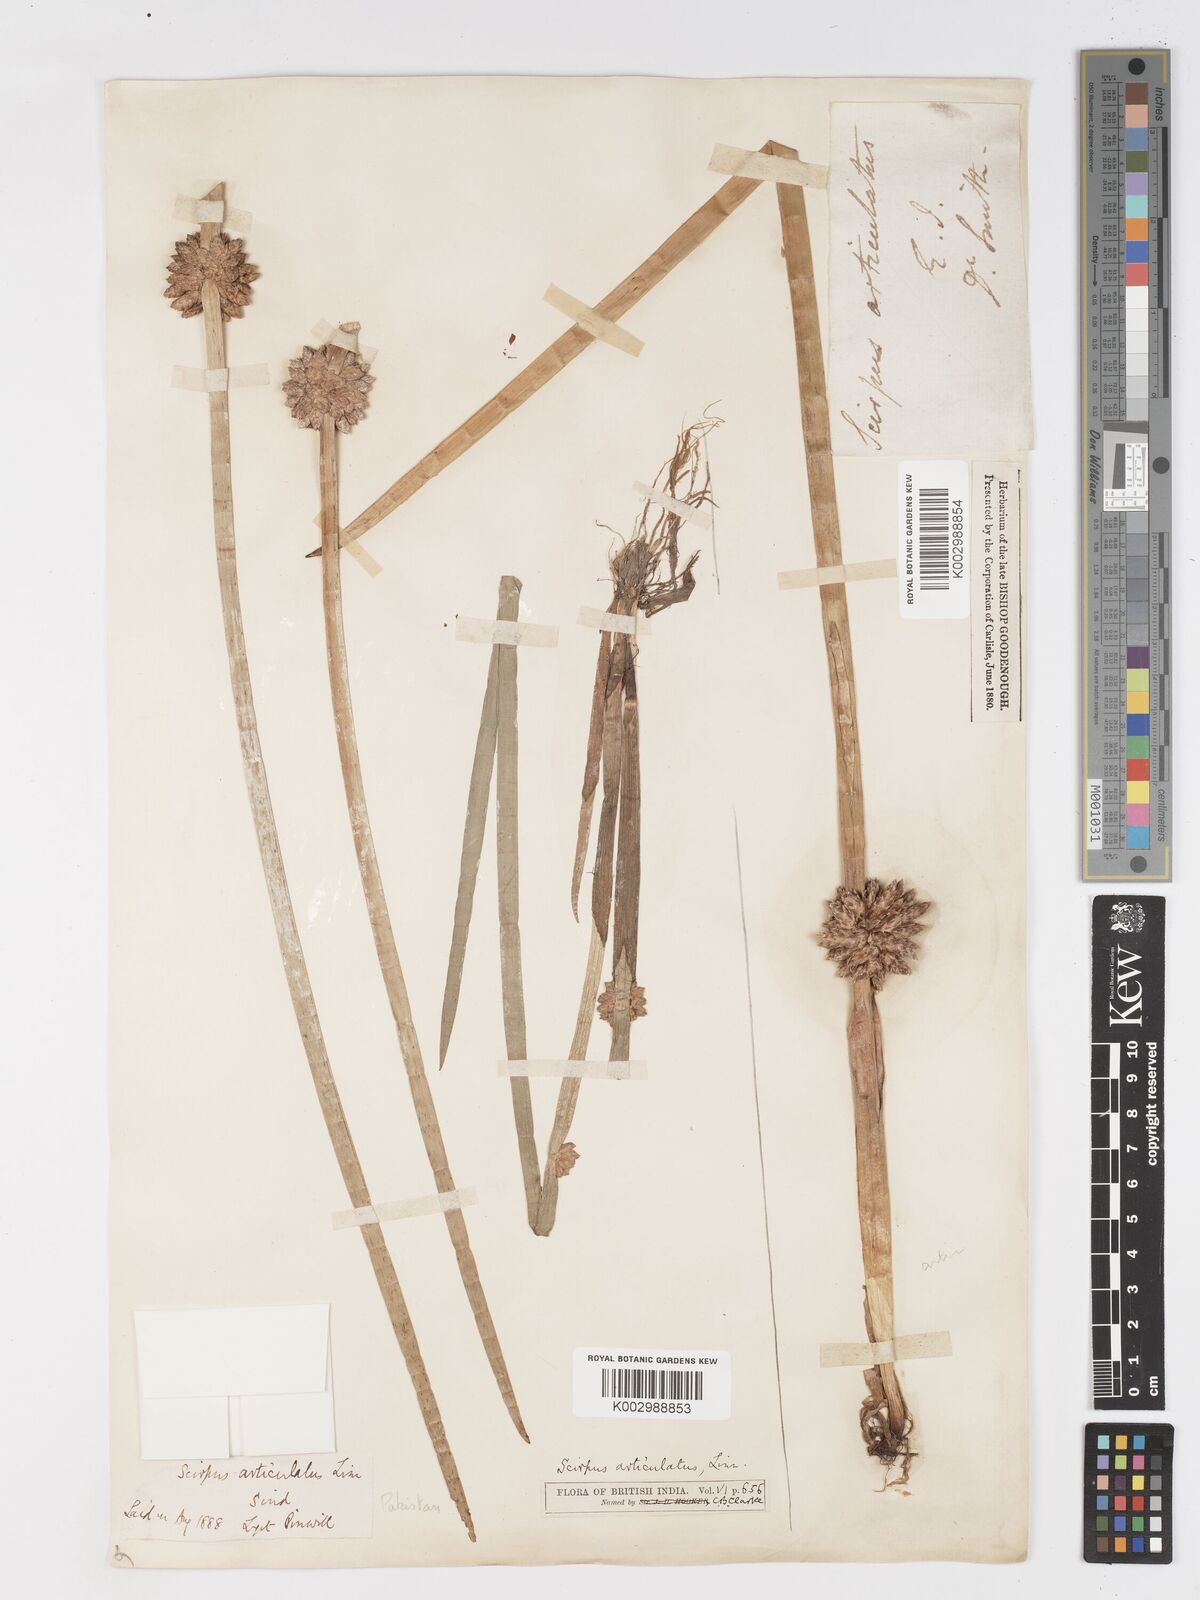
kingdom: Plantae
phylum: Tracheophyta
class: Liliopsida
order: Poales
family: Cyperaceae
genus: Schoenoplectiella
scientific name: Schoenoplectiella praelongata
